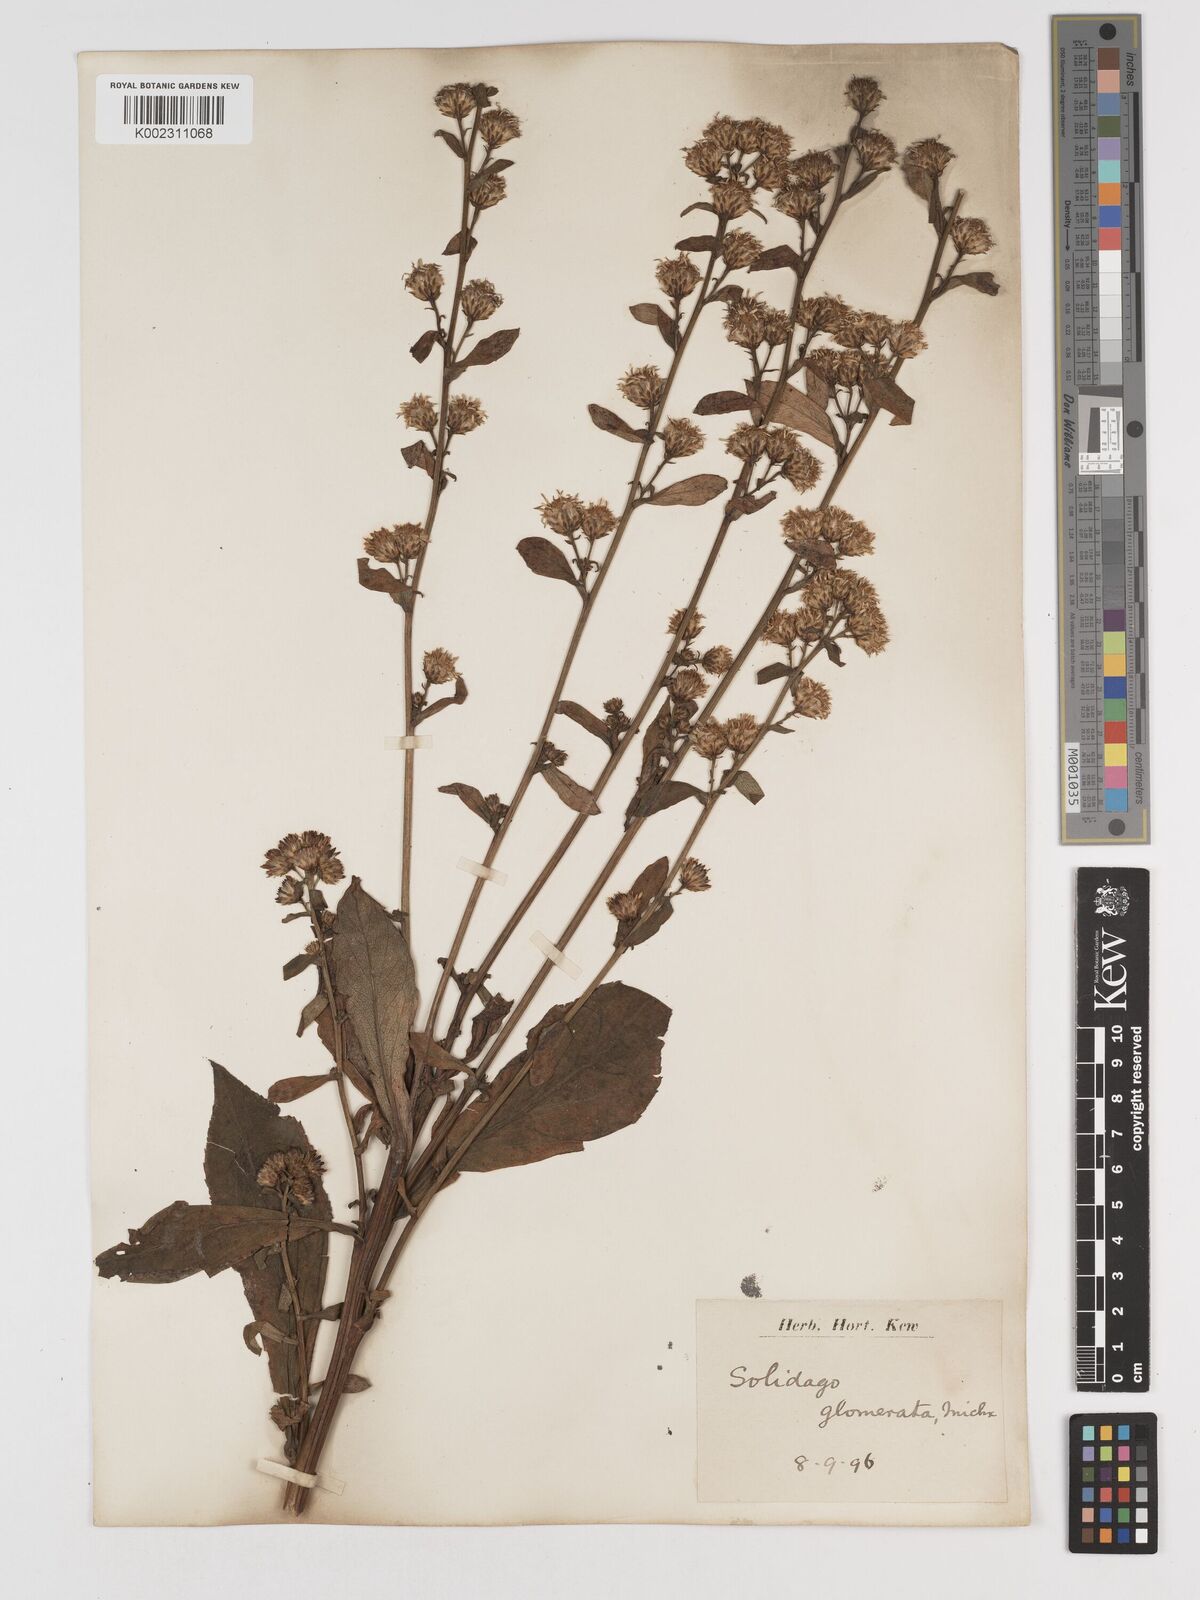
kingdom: Plantae
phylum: Tracheophyta
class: Magnoliopsida
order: Asterales
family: Asteraceae
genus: Solidago
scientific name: Solidago glomerata
